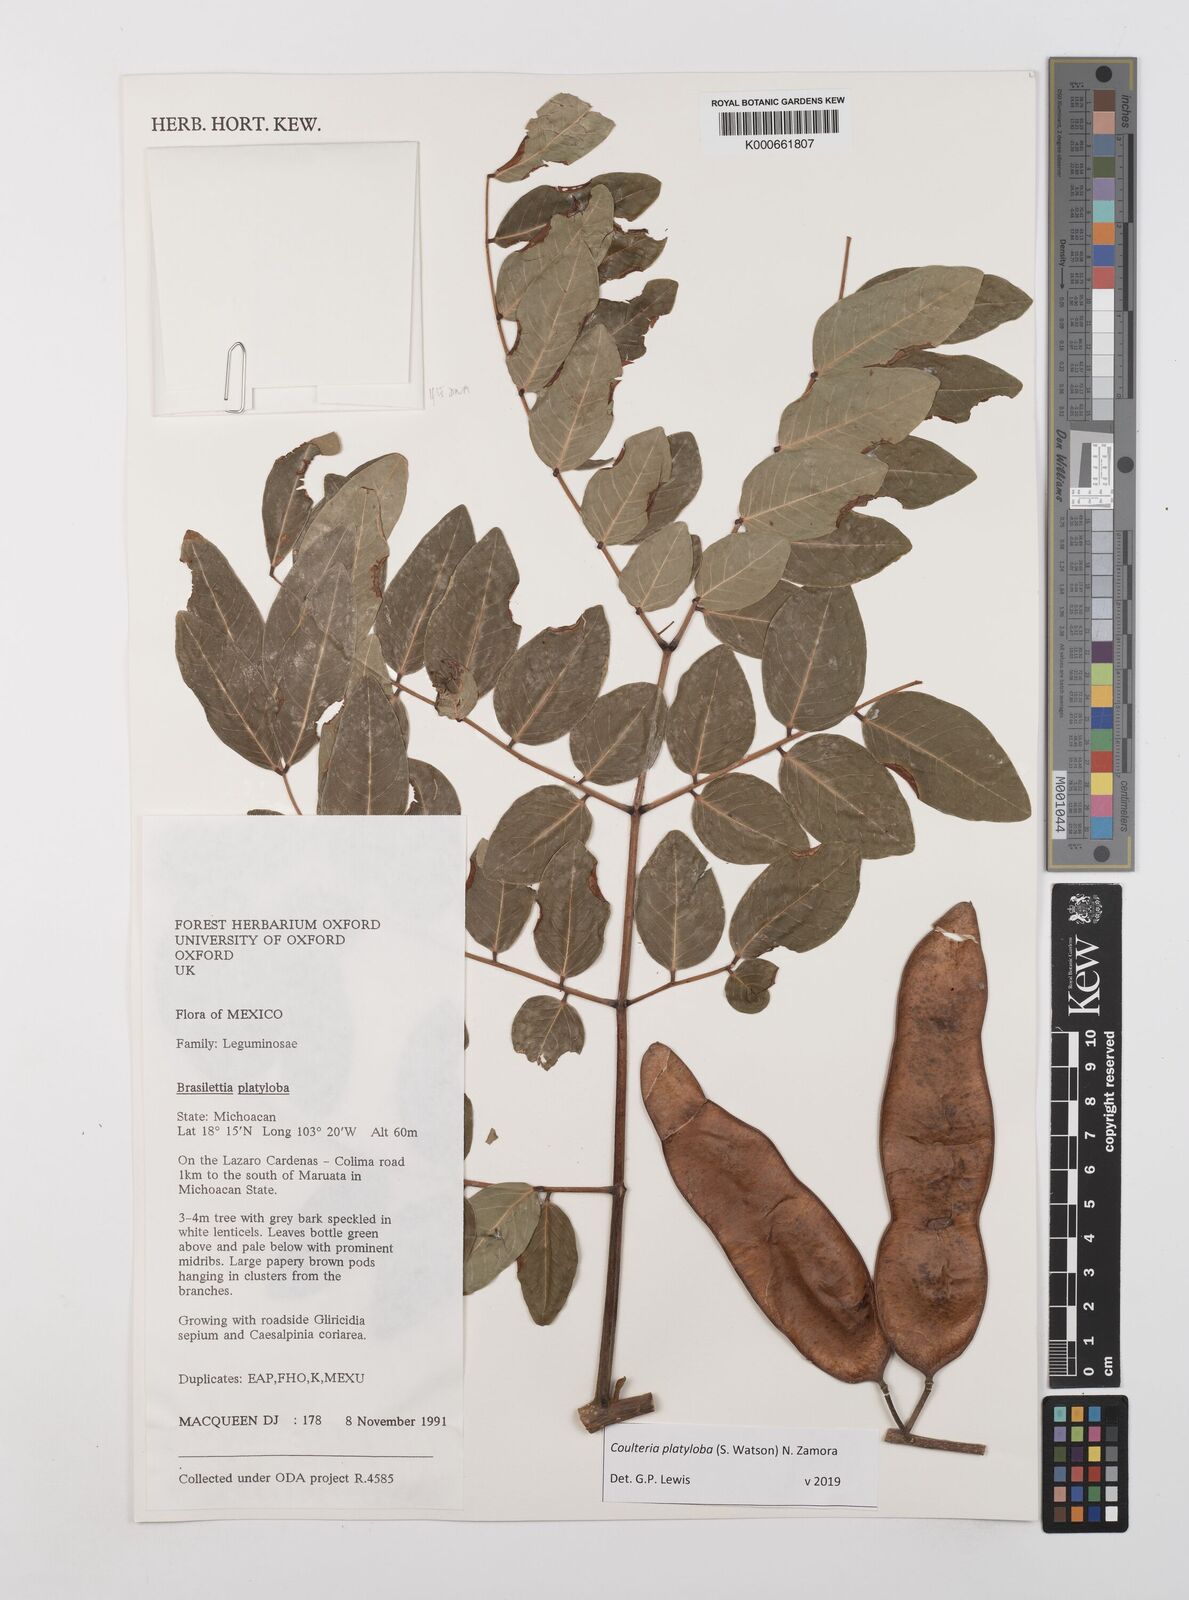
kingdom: Plantae
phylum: Tracheophyta
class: Magnoliopsida
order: Fabales
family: Fabaceae
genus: Coulteria
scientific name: Coulteria platyloba
